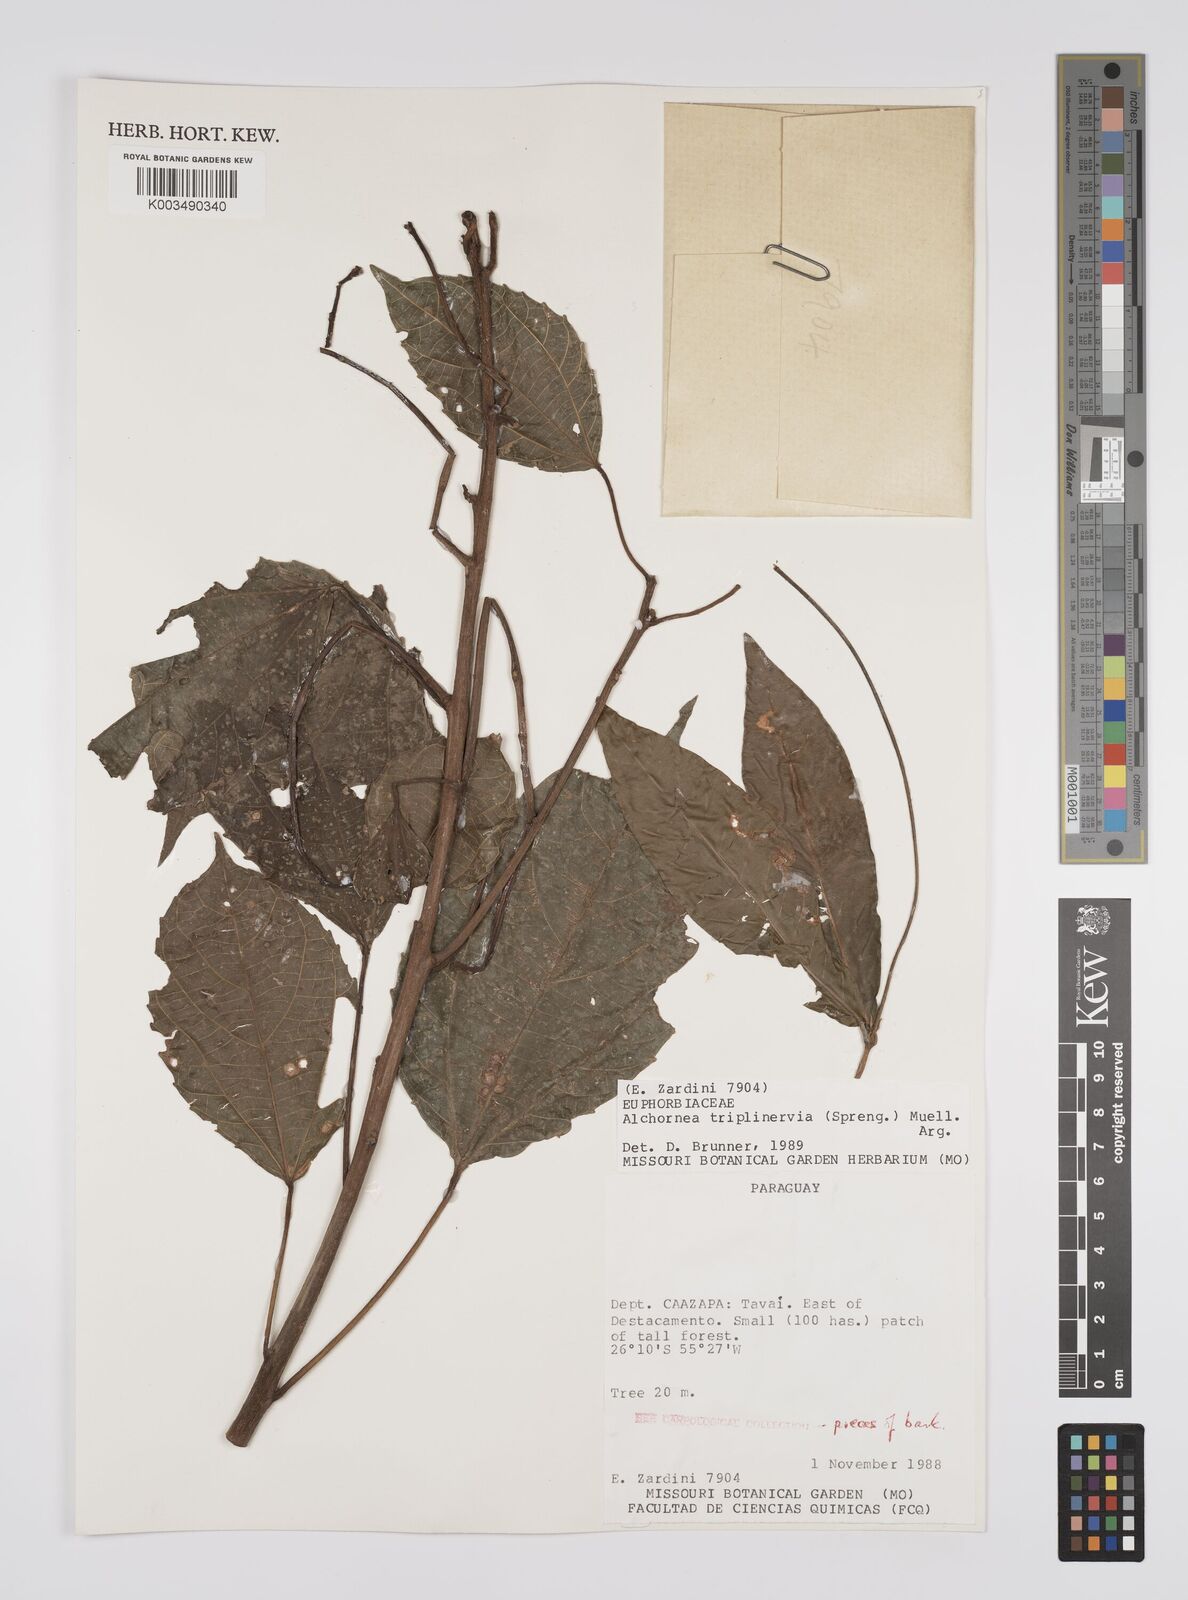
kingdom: Plantae
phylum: Tracheophyta
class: Magnoliopsida
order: Malpighiales
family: Euphorbiaceae
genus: Alchornea
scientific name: Alchornea triplinervia
